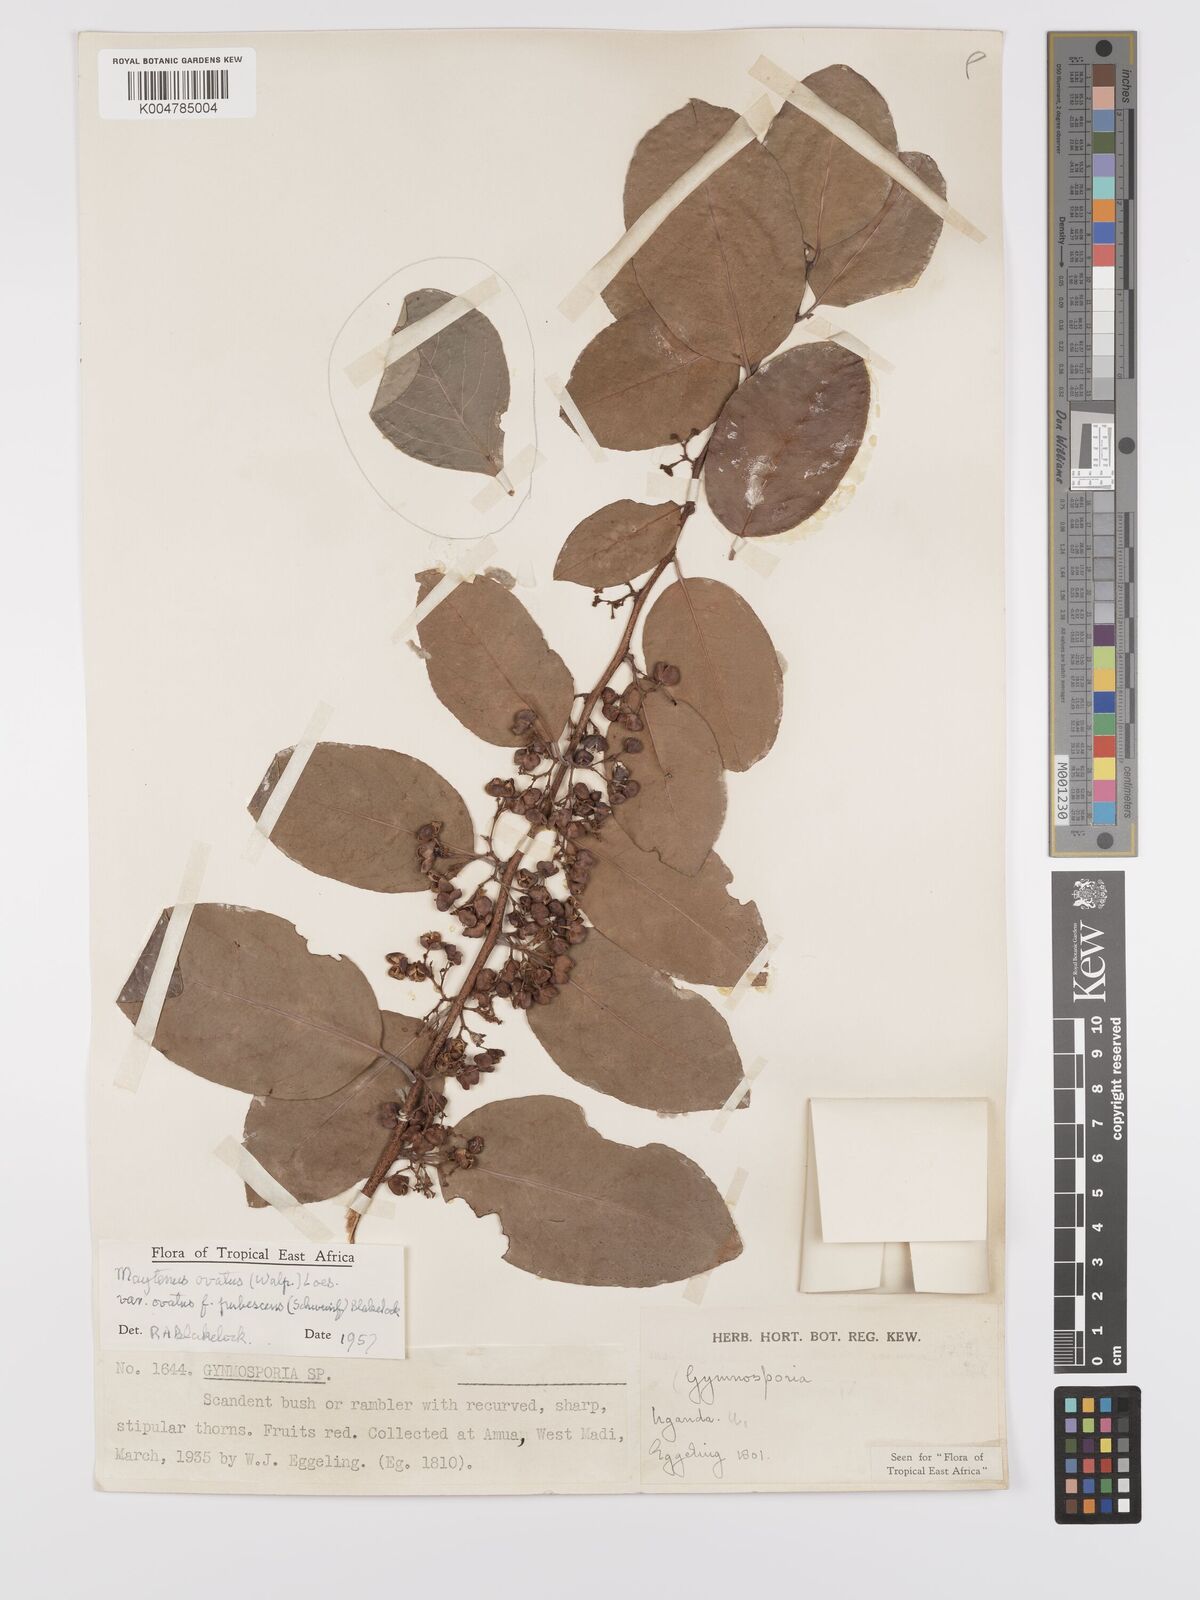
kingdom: Plantae
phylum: Tracheophyta
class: Magnoliopsida
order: Celastrales
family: Celastraceae
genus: Gymnosporia
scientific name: Gymnosporia buchananii
